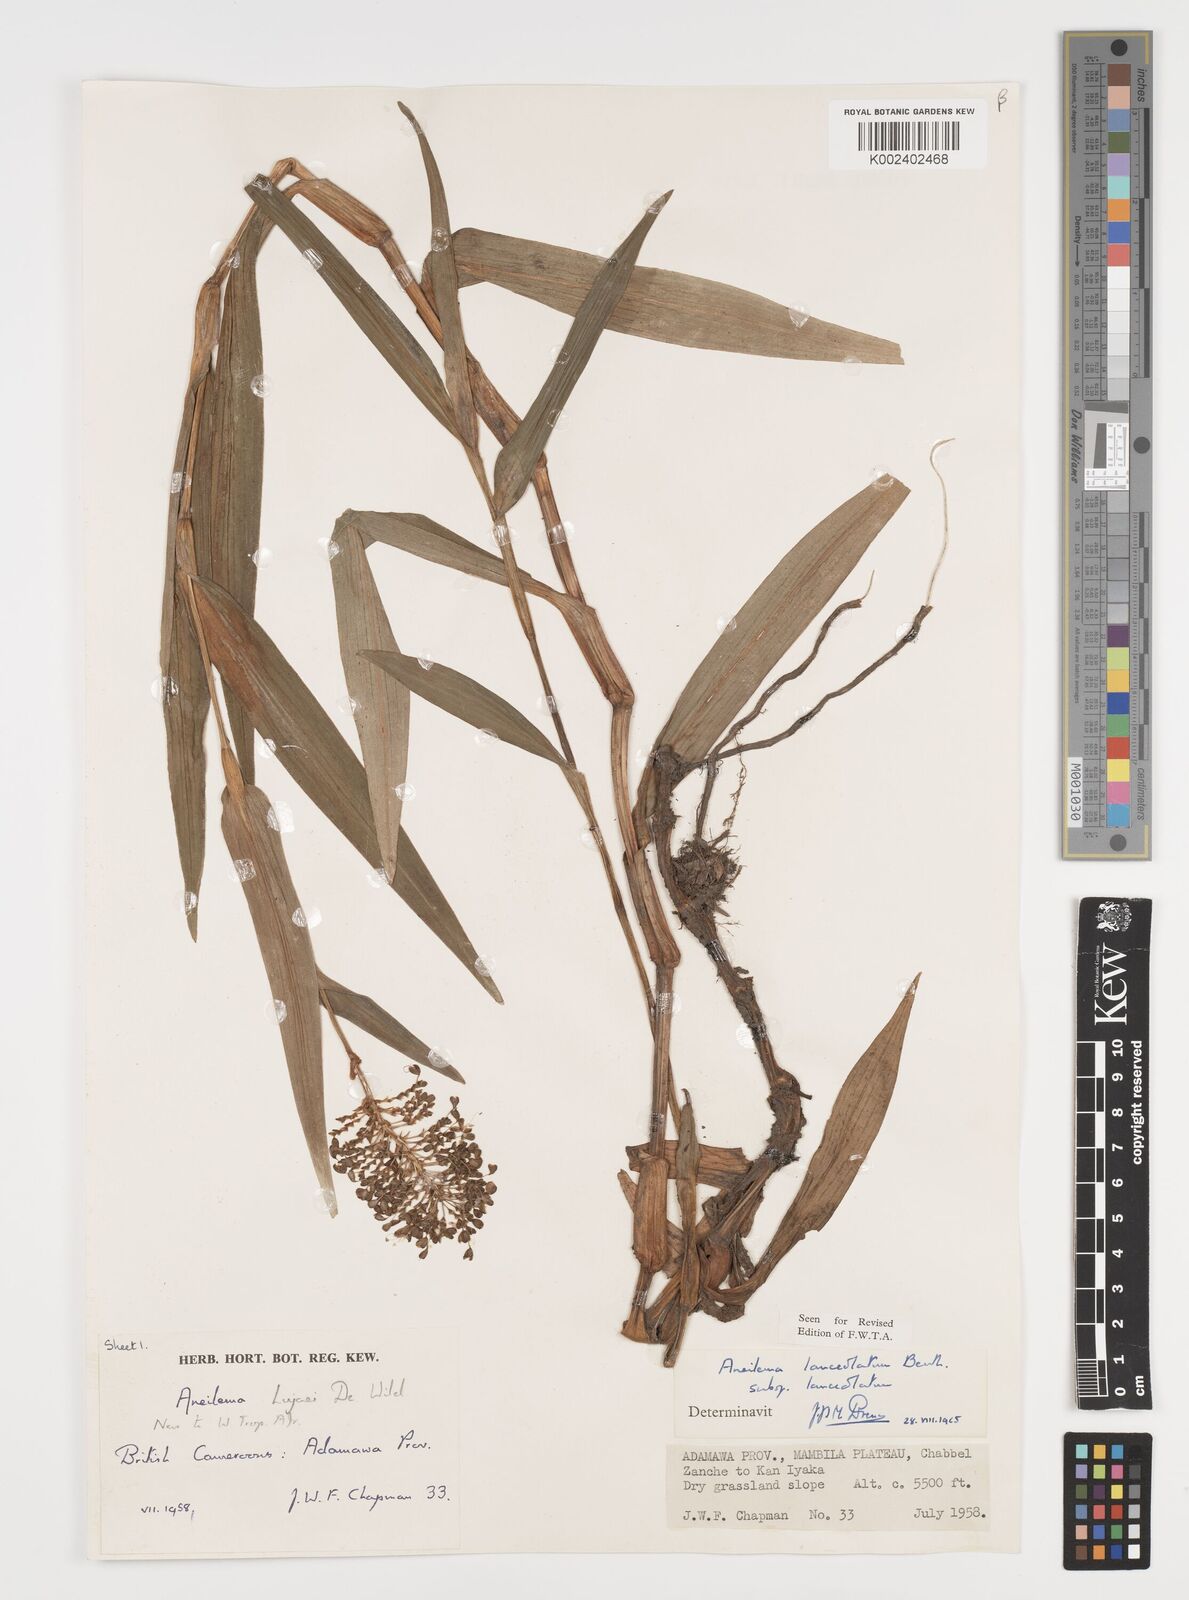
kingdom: Plantae
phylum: Tracheophyta
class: Liliopsida
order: Commelinales
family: Commelinaceae
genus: Murdannia
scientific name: Murdannia spirata
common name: Asiatic dewflower
